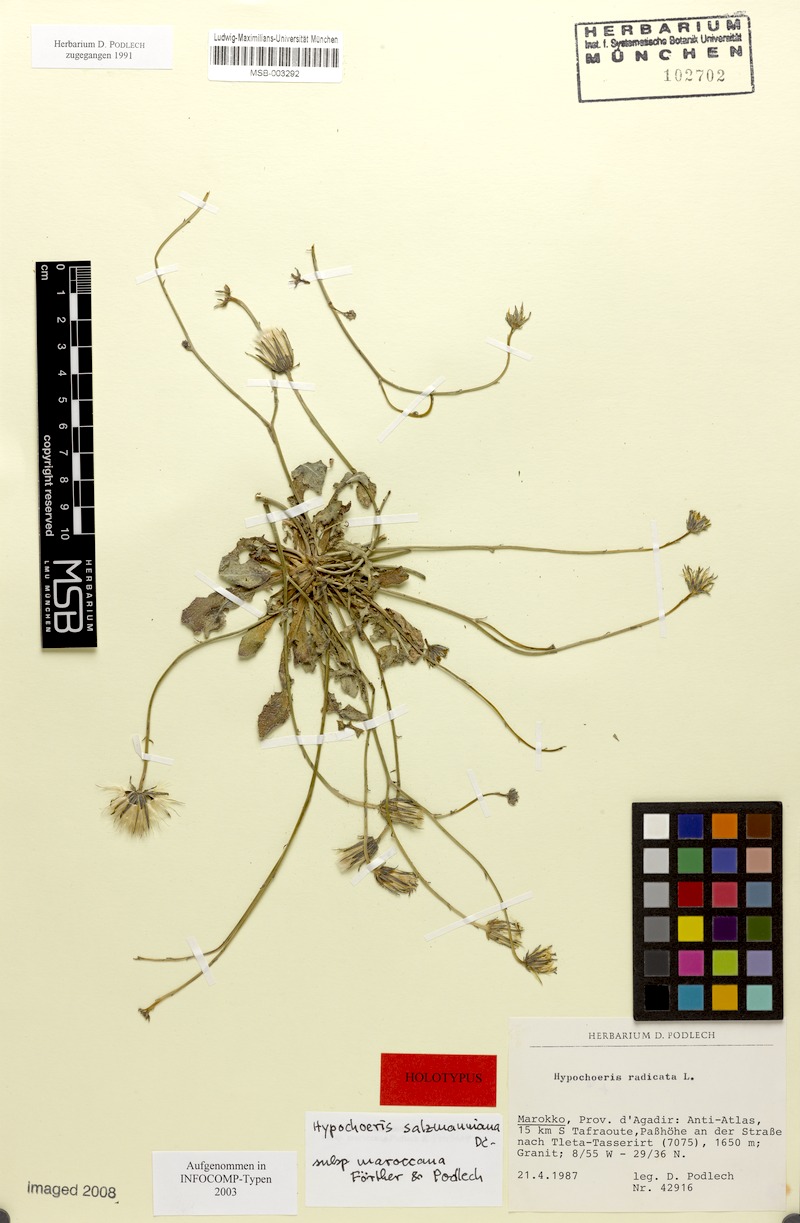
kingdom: Plantae
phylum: Tracheophyta
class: Magnoliopsida
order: Asterales
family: Asteraceae
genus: Hypochaeris
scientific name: Hypochaeris arachnoides
